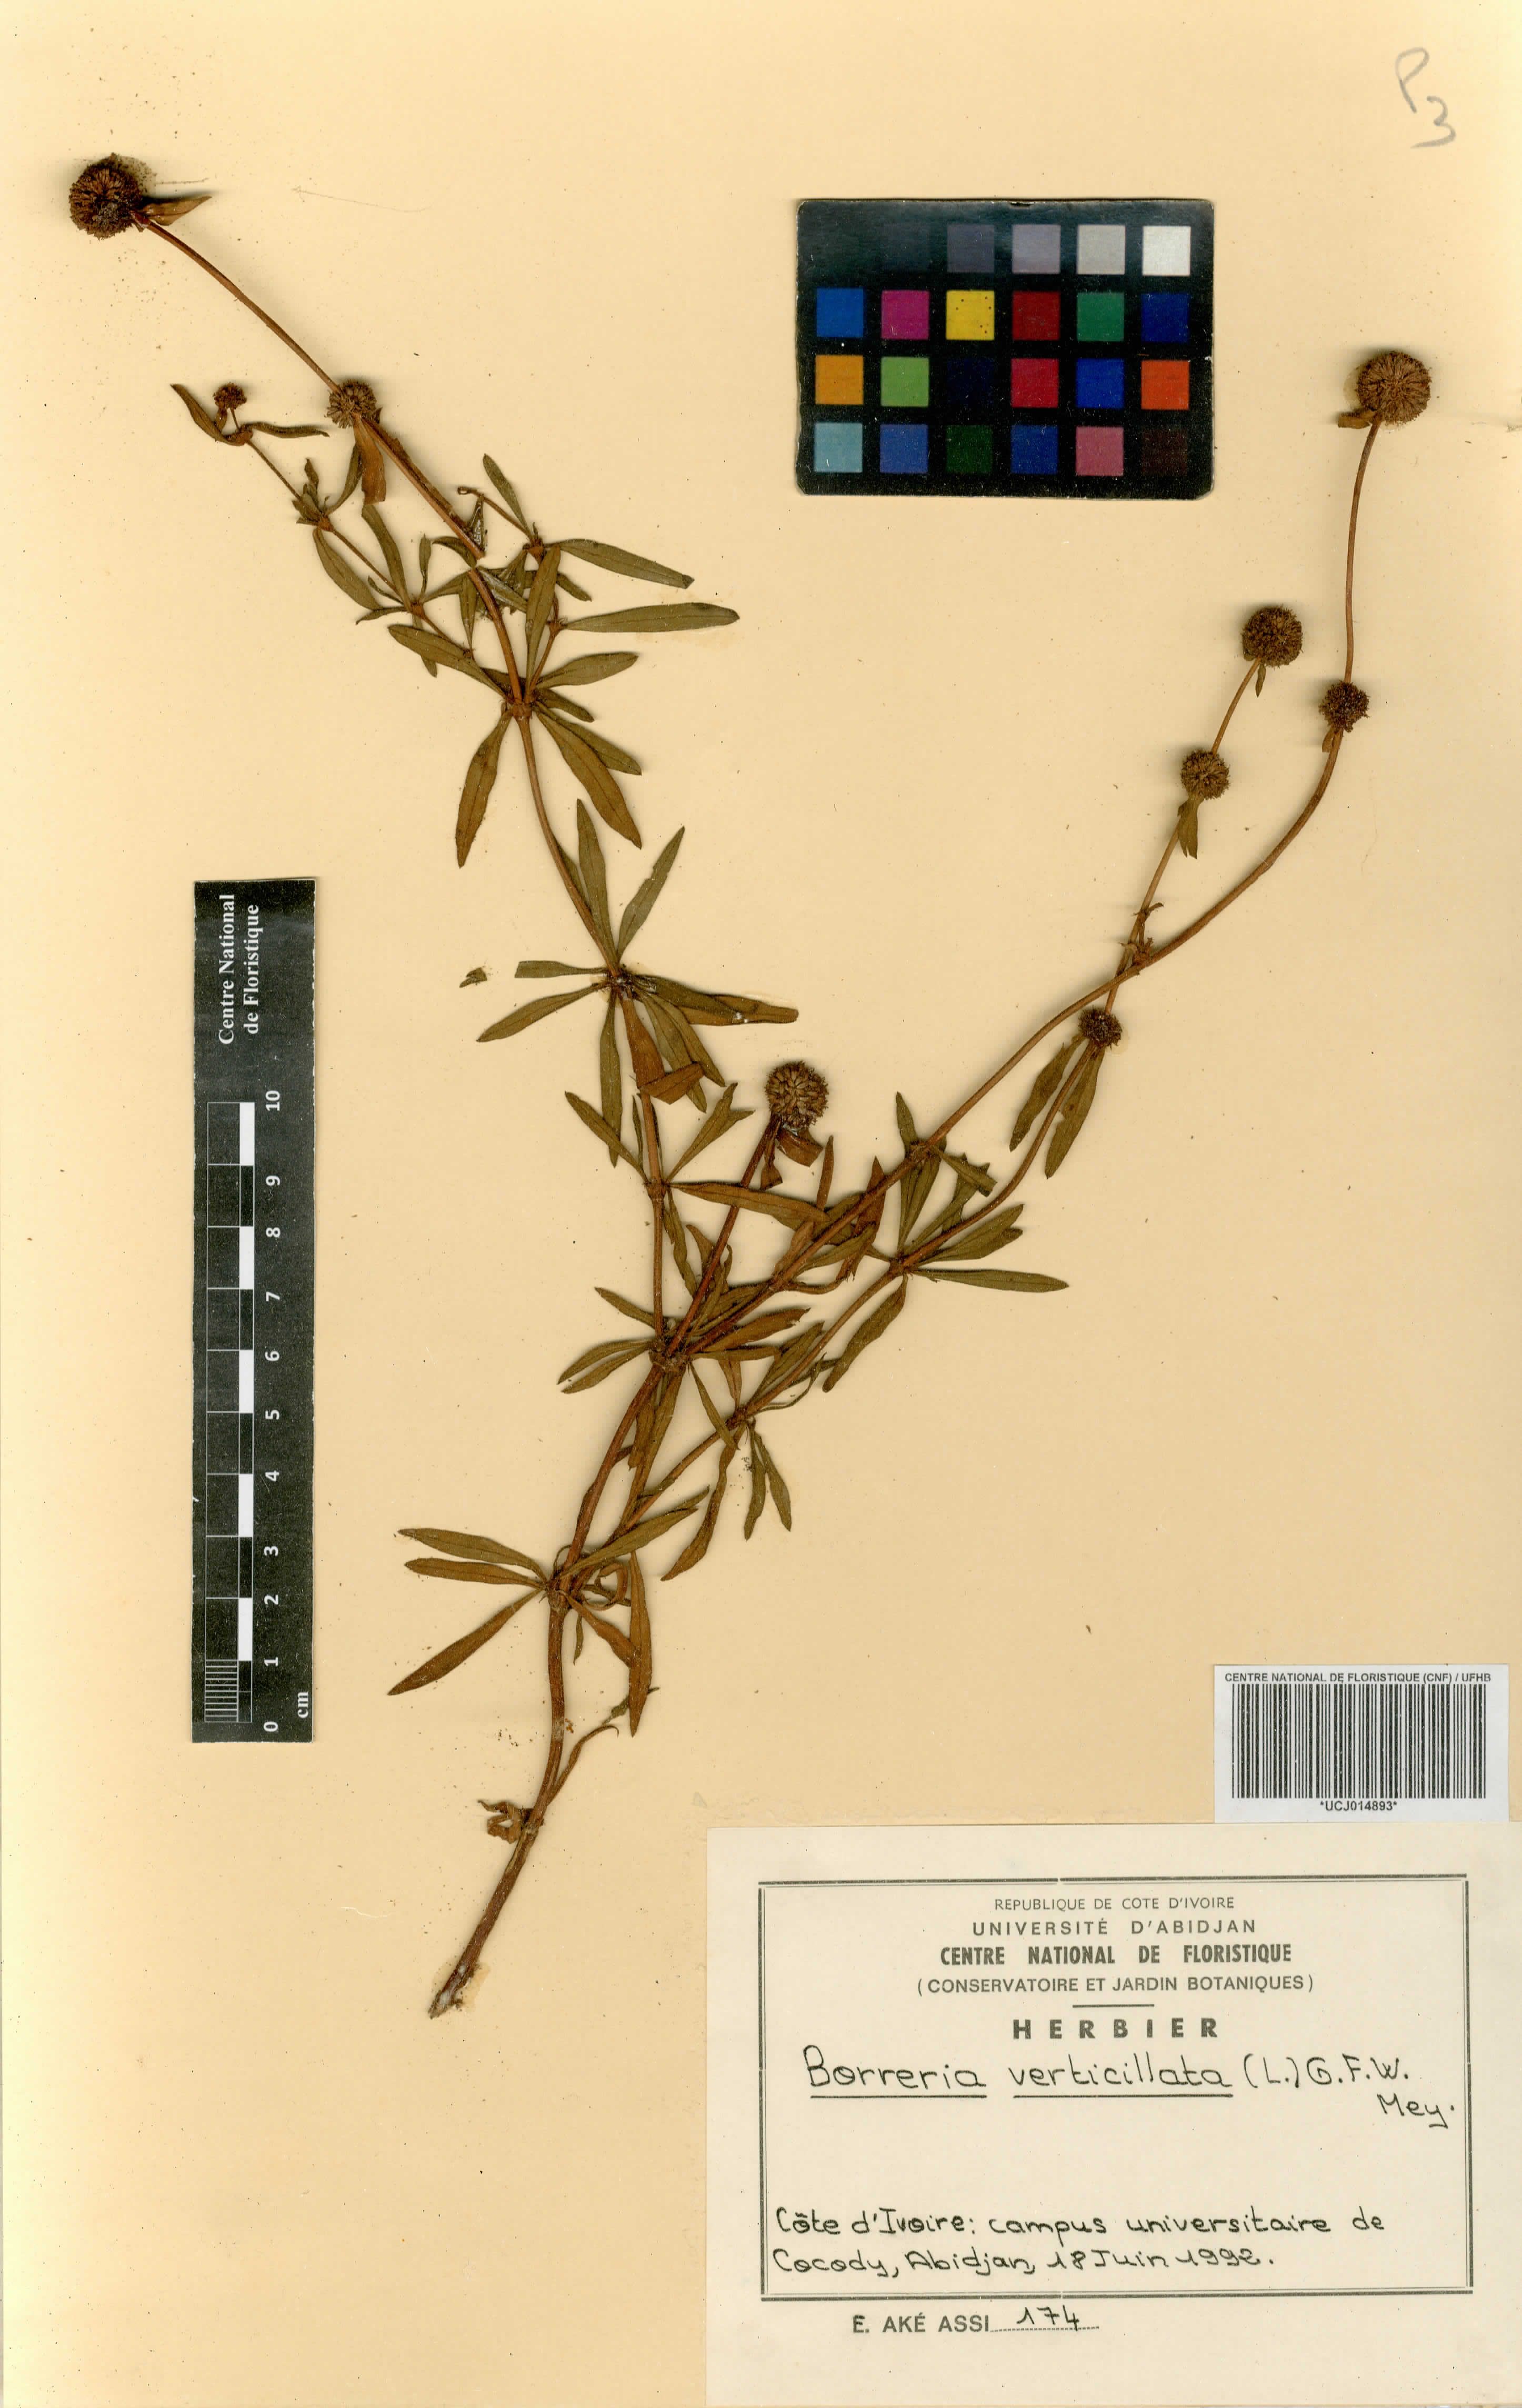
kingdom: Plantae
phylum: Tracheophyta
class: Magnoliopsida
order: Gentianales
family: Rubiaceae
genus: Spermacoce
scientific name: Spermacoce verticillata
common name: Shrubby false buttonweed
